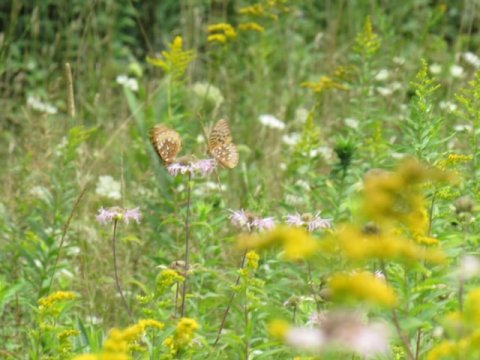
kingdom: Animalia
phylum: Arthropoda
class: Insecta
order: Lepidoptera
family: Nymphalidae
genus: Speyeria
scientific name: Speyeria cybele
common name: Great Spangled Fritillary
